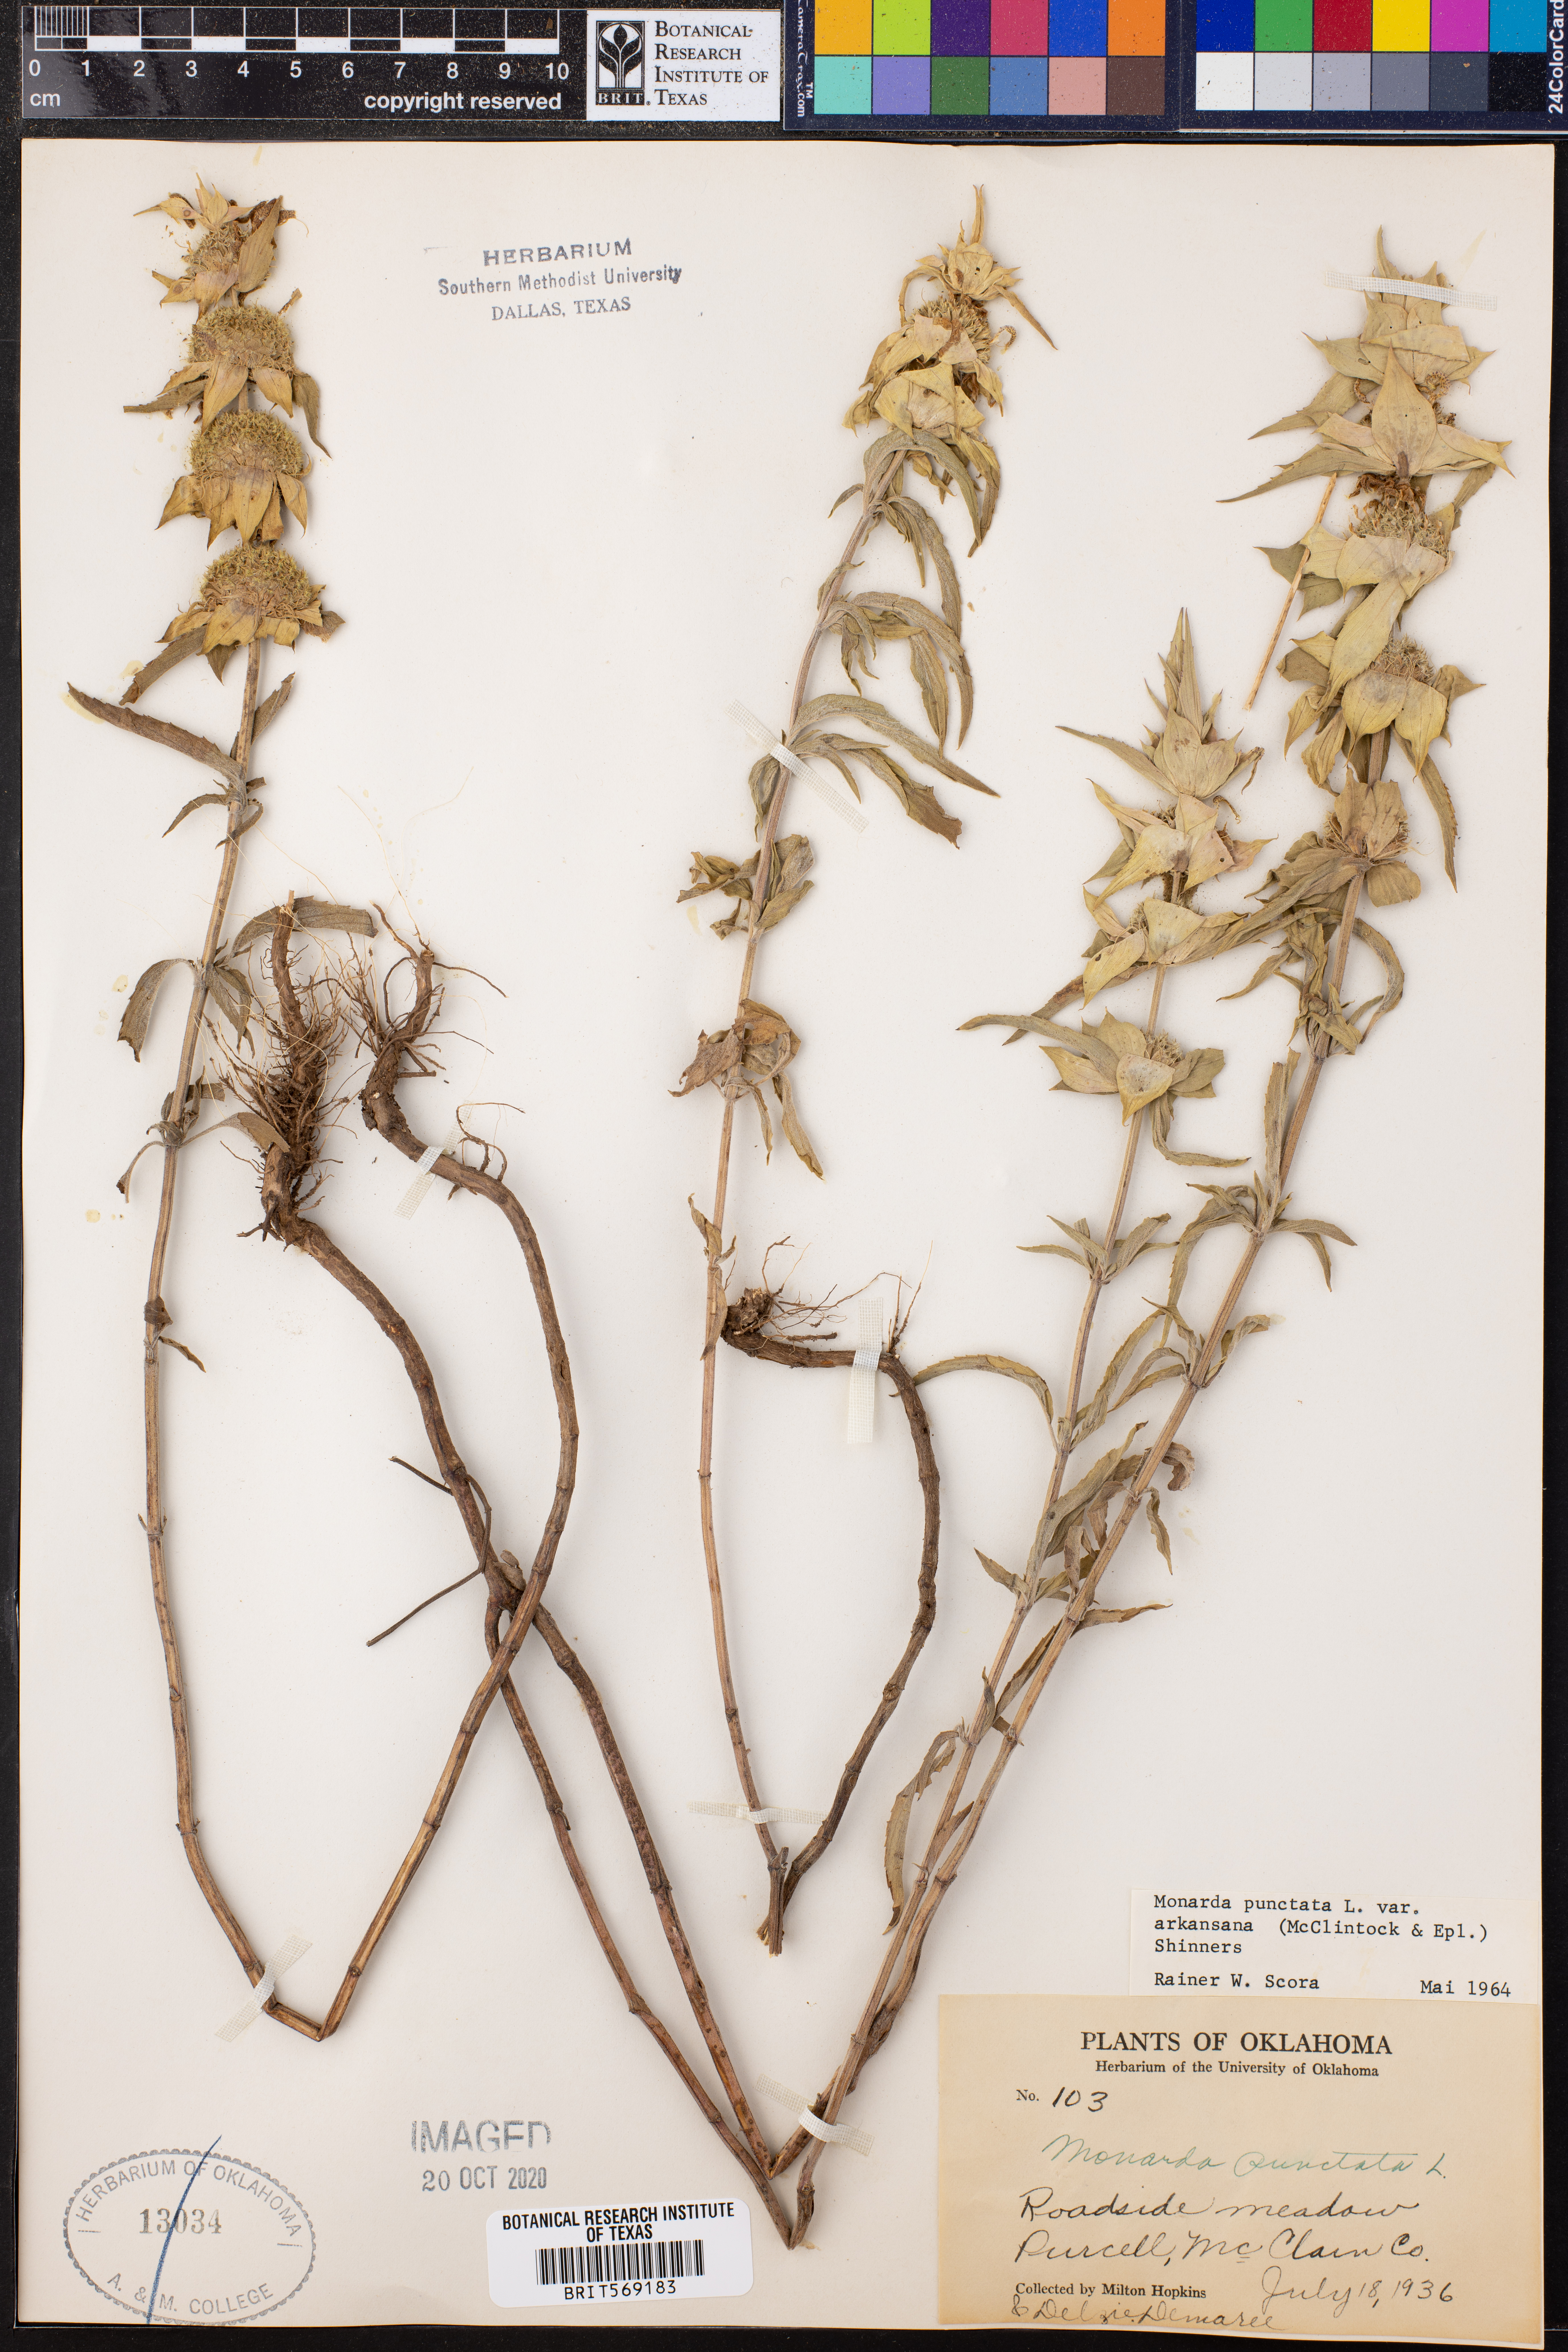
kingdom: Plantae
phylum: Tracheophyta
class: Magnoliopsida
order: Lamiales
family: Lamiaceae
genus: Monarda
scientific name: Monarda punctata
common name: Dotted monarda
